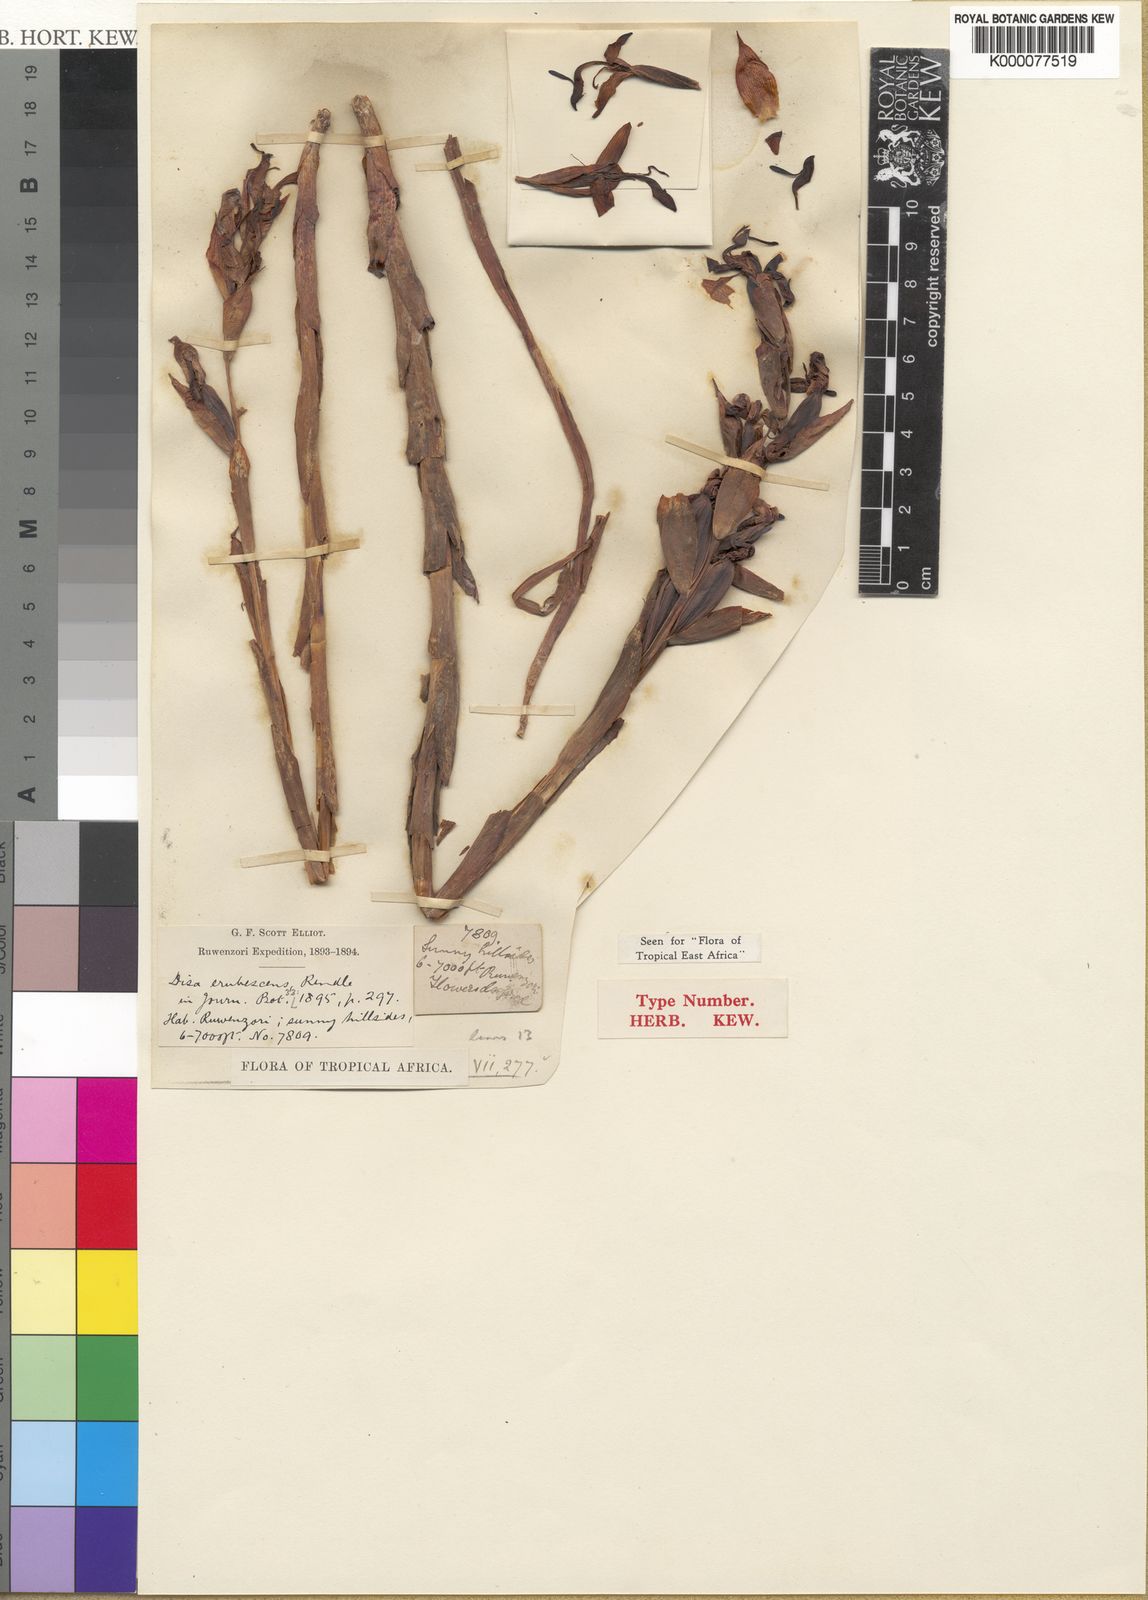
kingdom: Plantae
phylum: Tracheophyta
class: Liliopsida
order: Asparagales
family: Orchidaceae
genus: Disa
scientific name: Disa erubescens
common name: The rose disa
